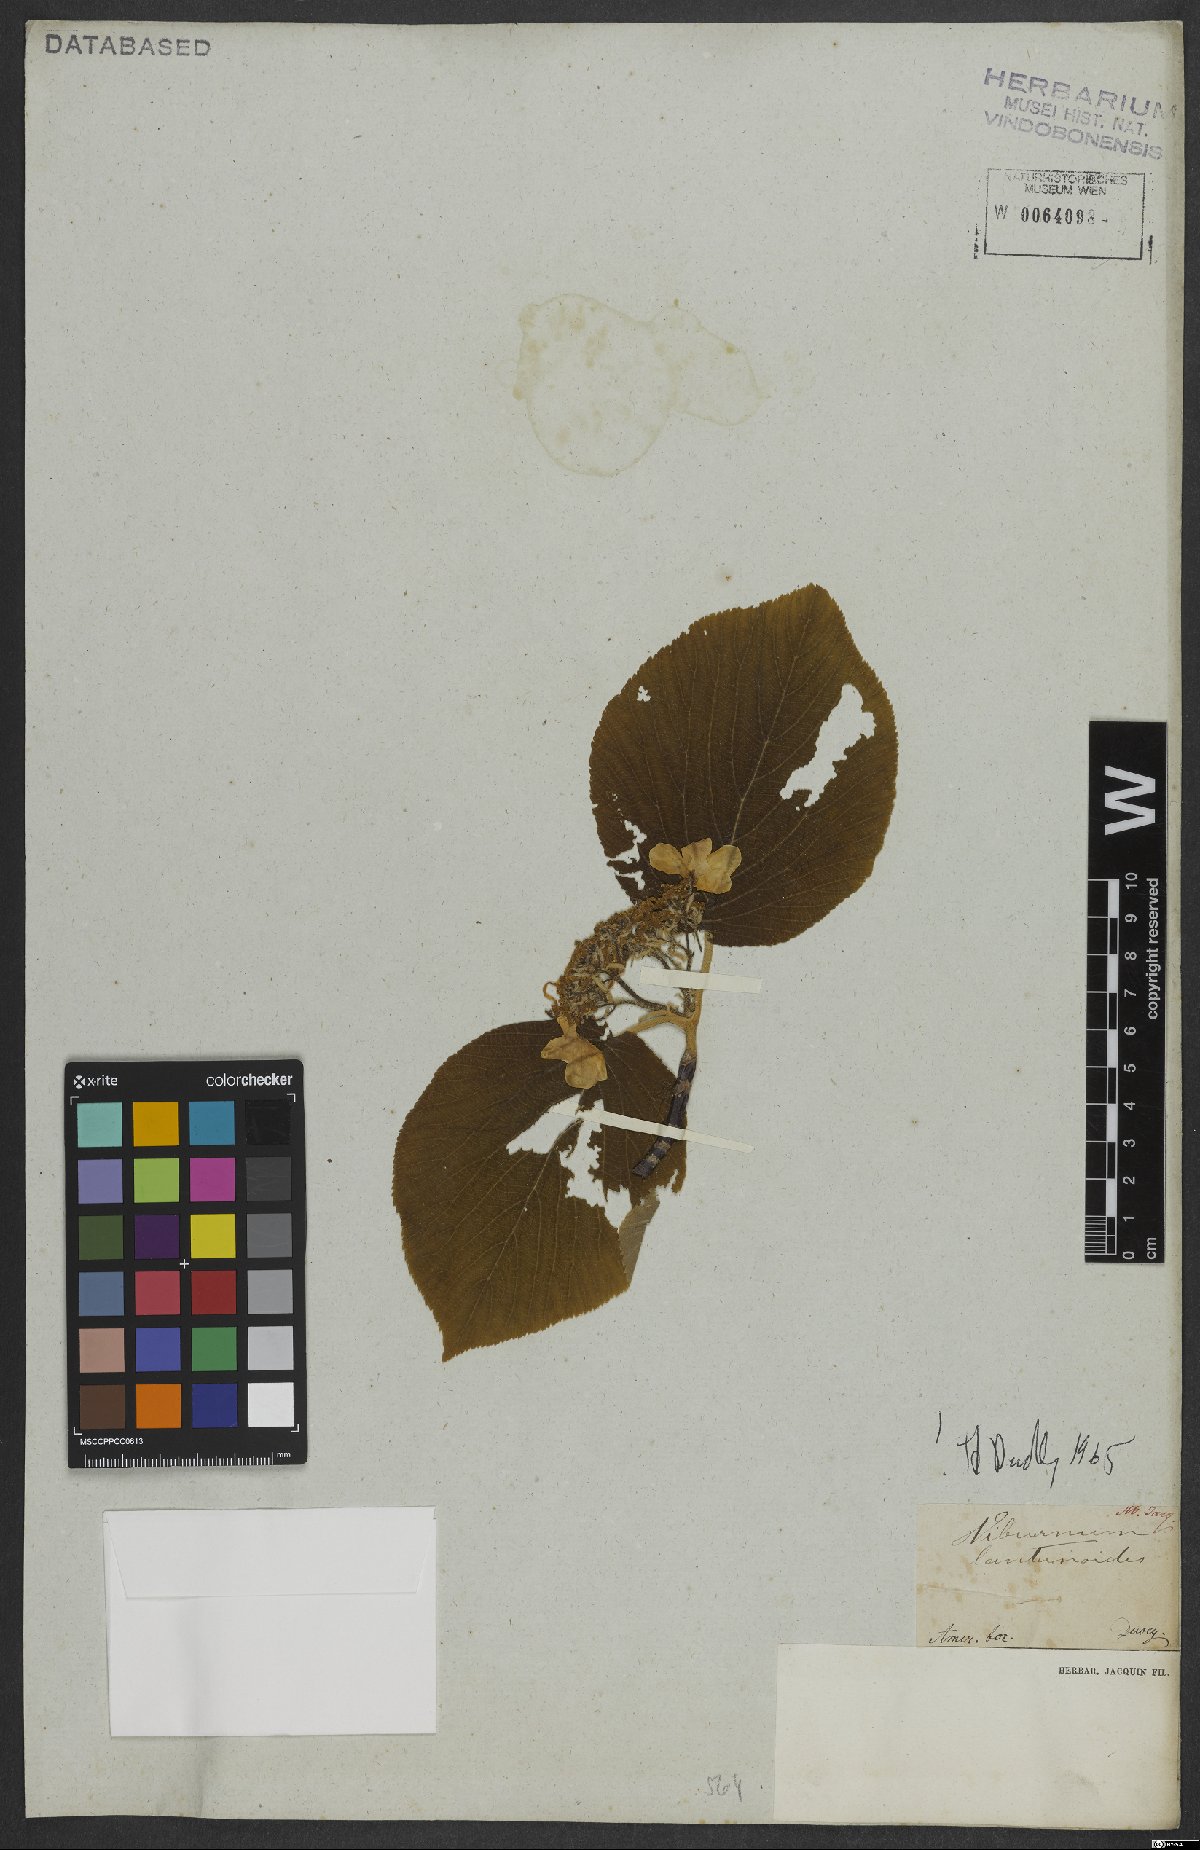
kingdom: Plantae
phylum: Tracheophyta
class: Magnoliopsida
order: Dipsacales
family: Viburnaceae
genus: Viburnum
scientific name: Viburnum lantanoides
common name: Hobblebush
